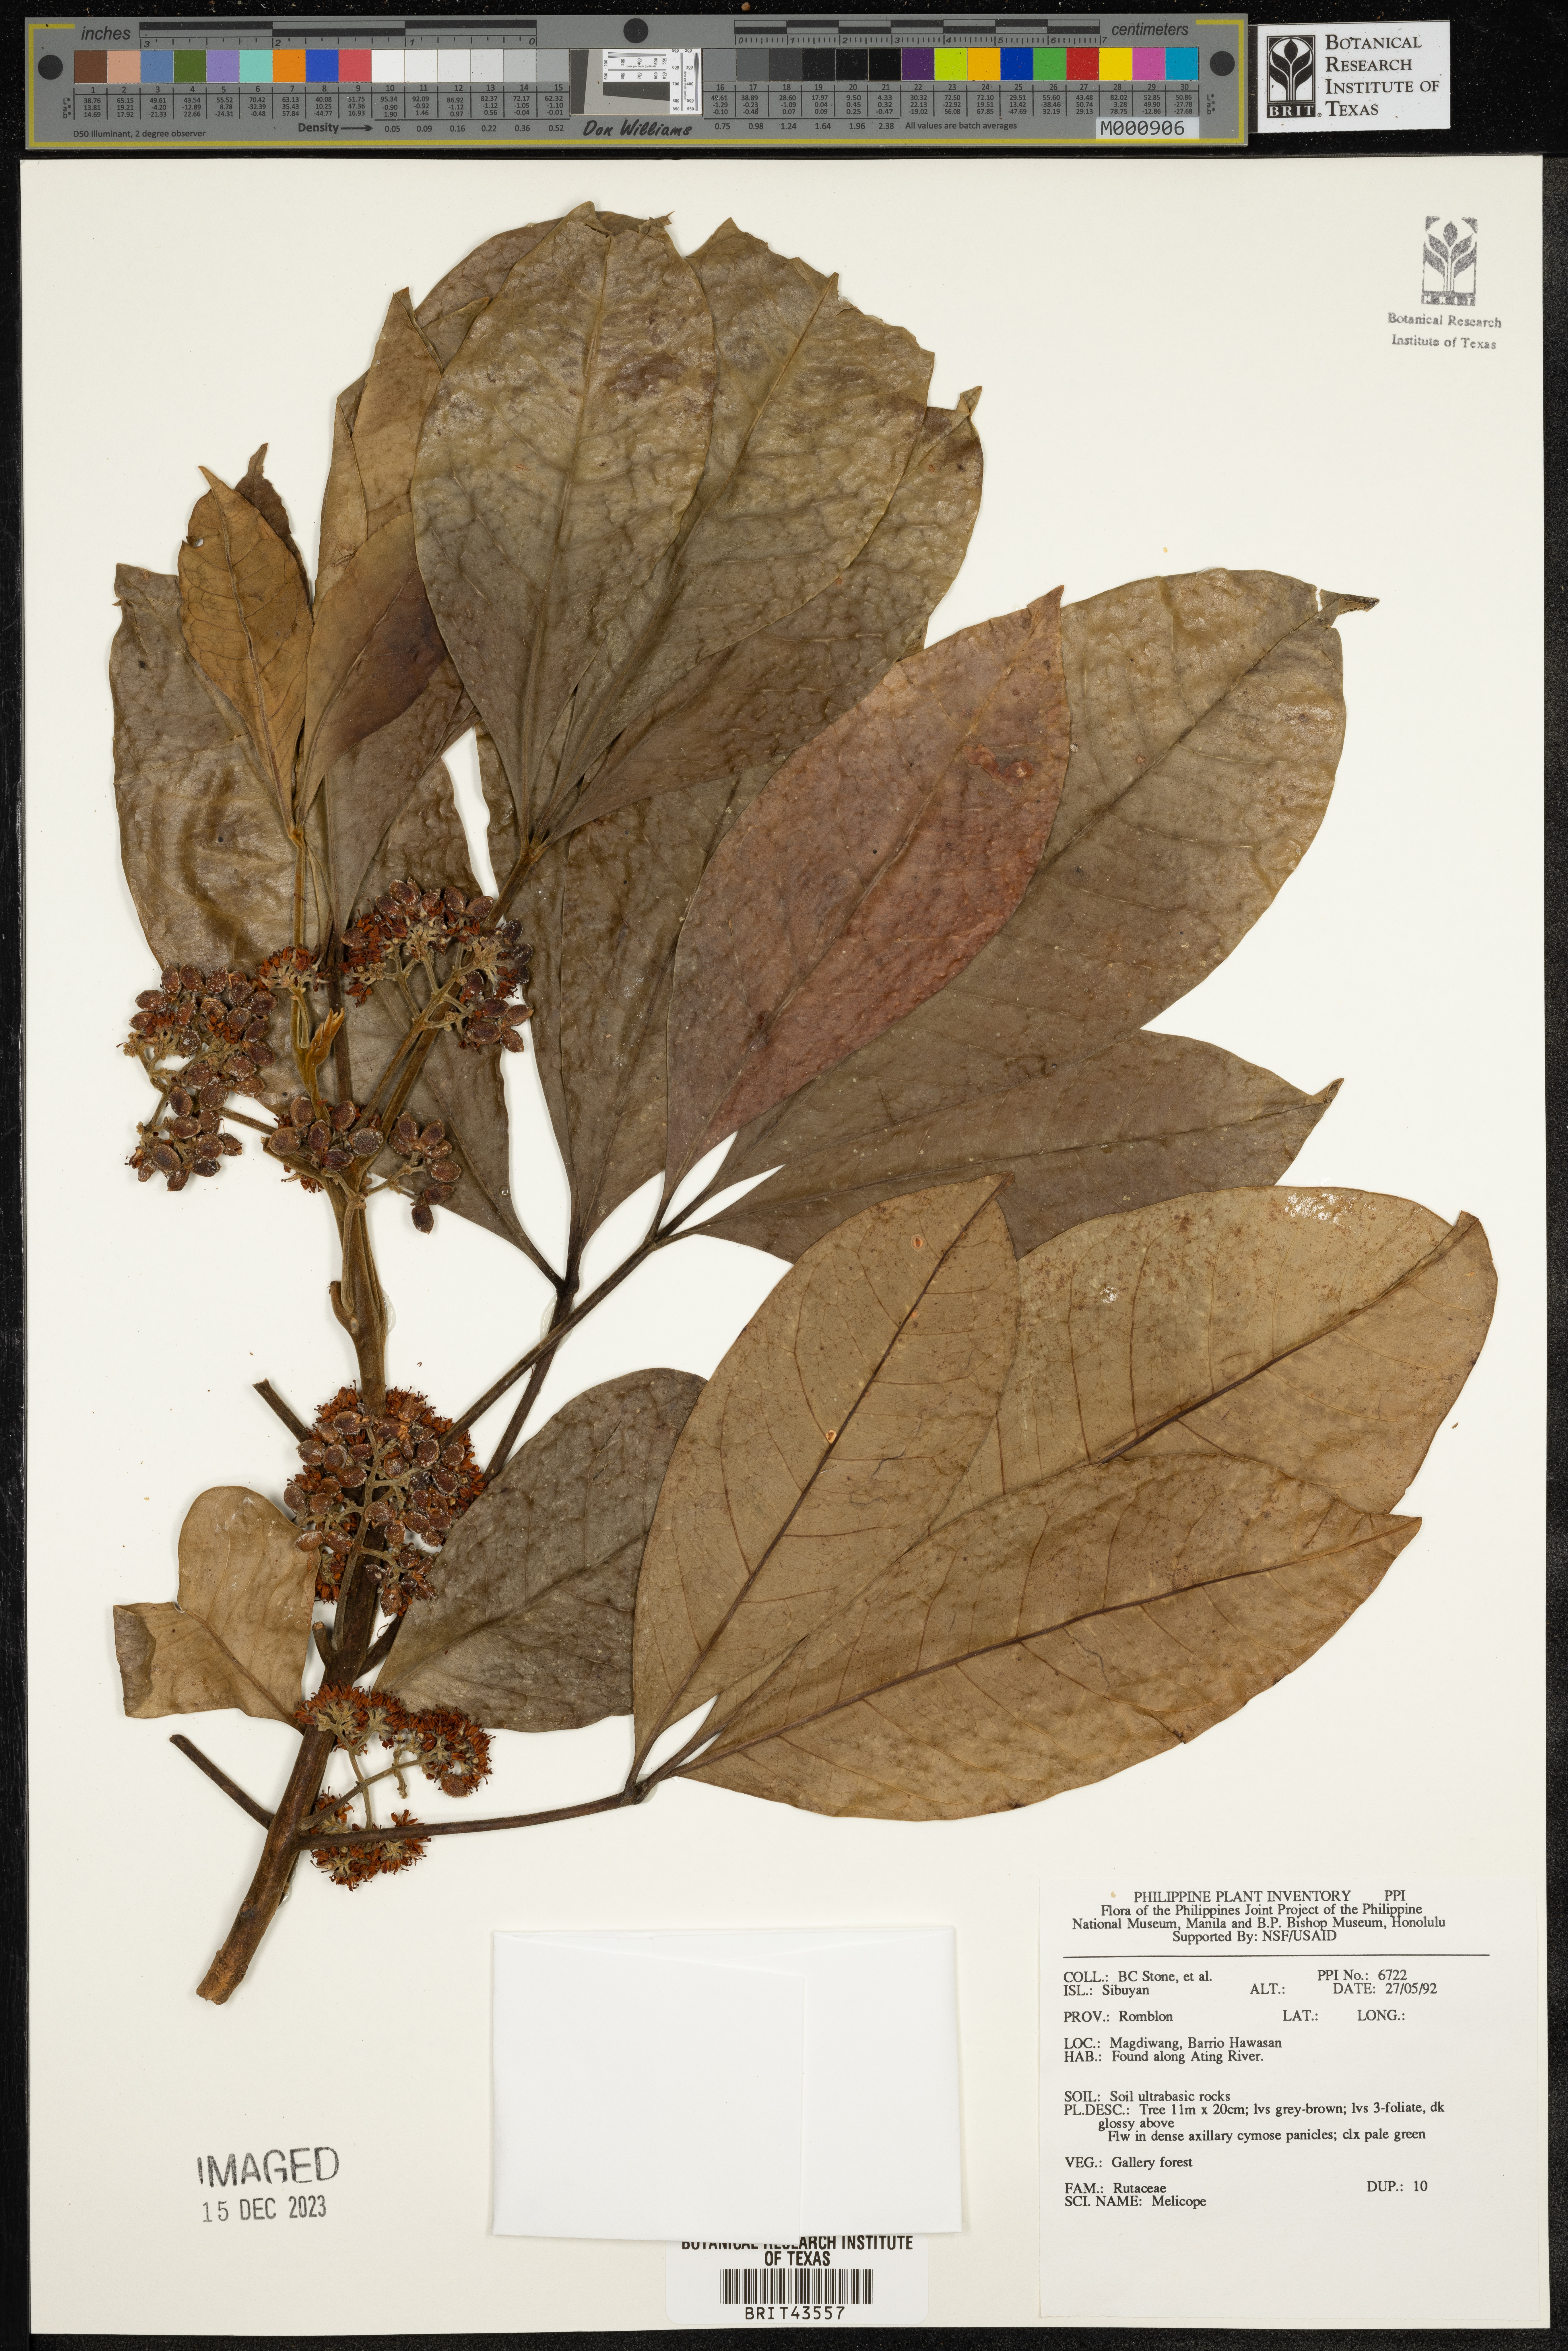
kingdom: Plantae
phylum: Tracheophyta
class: Magnoliopsida
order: Sapindales
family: Rutaceae
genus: Melicope
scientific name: Melicope
